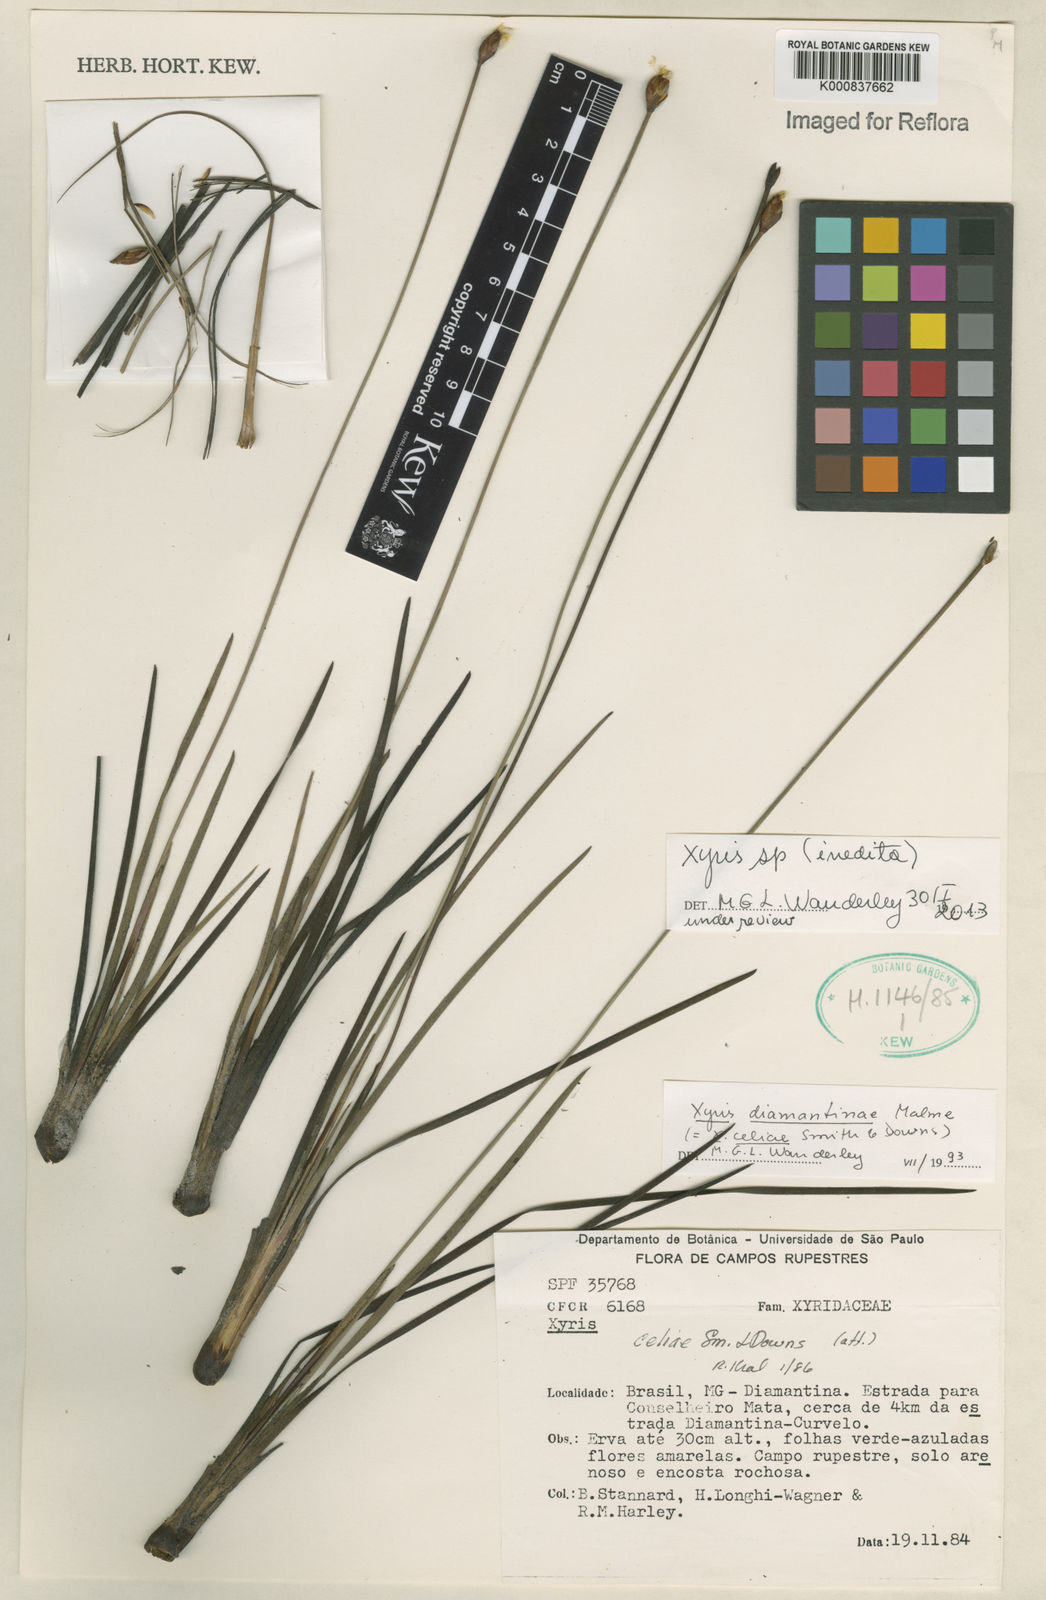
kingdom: Plantae
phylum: Tracheophyta
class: Liliopsida
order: Poales
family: Xyridaceae
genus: Xyris
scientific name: Xyris
